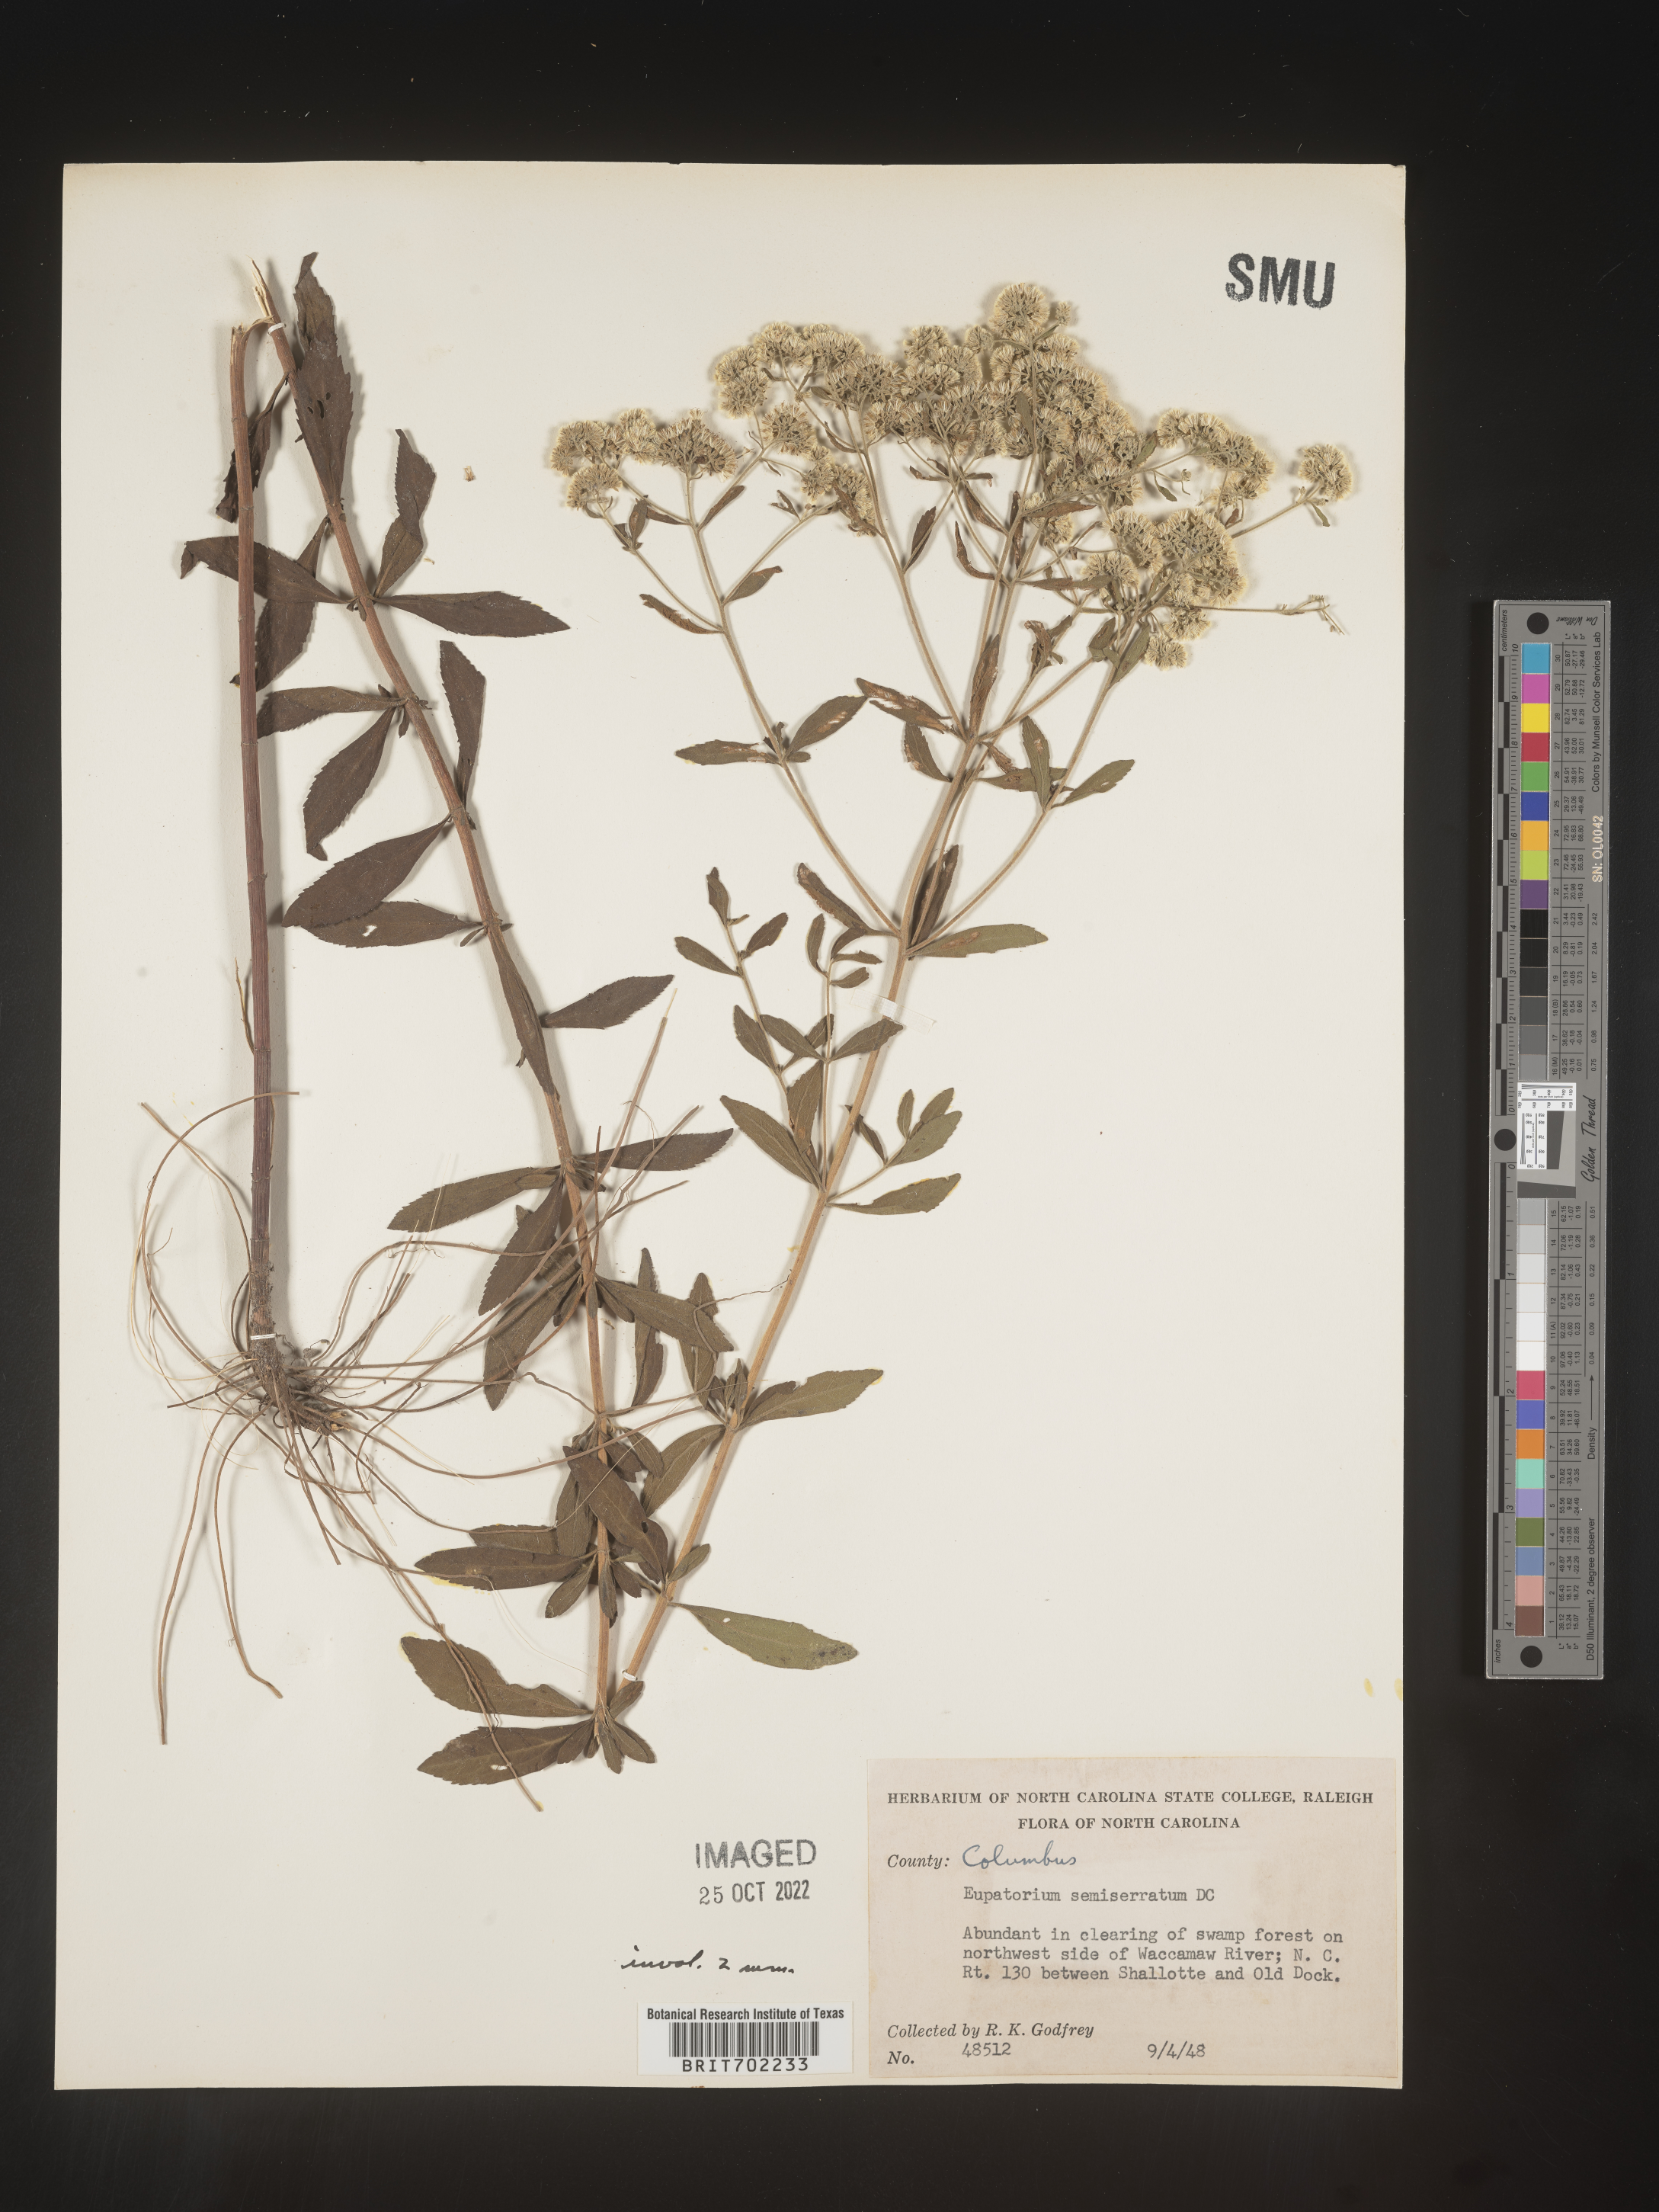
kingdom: Plantae
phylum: Tracheophyta
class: Magnoliopsida
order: Asterales
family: Asteraceae
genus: Eupatorium
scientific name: Eupatorium semiserratum
